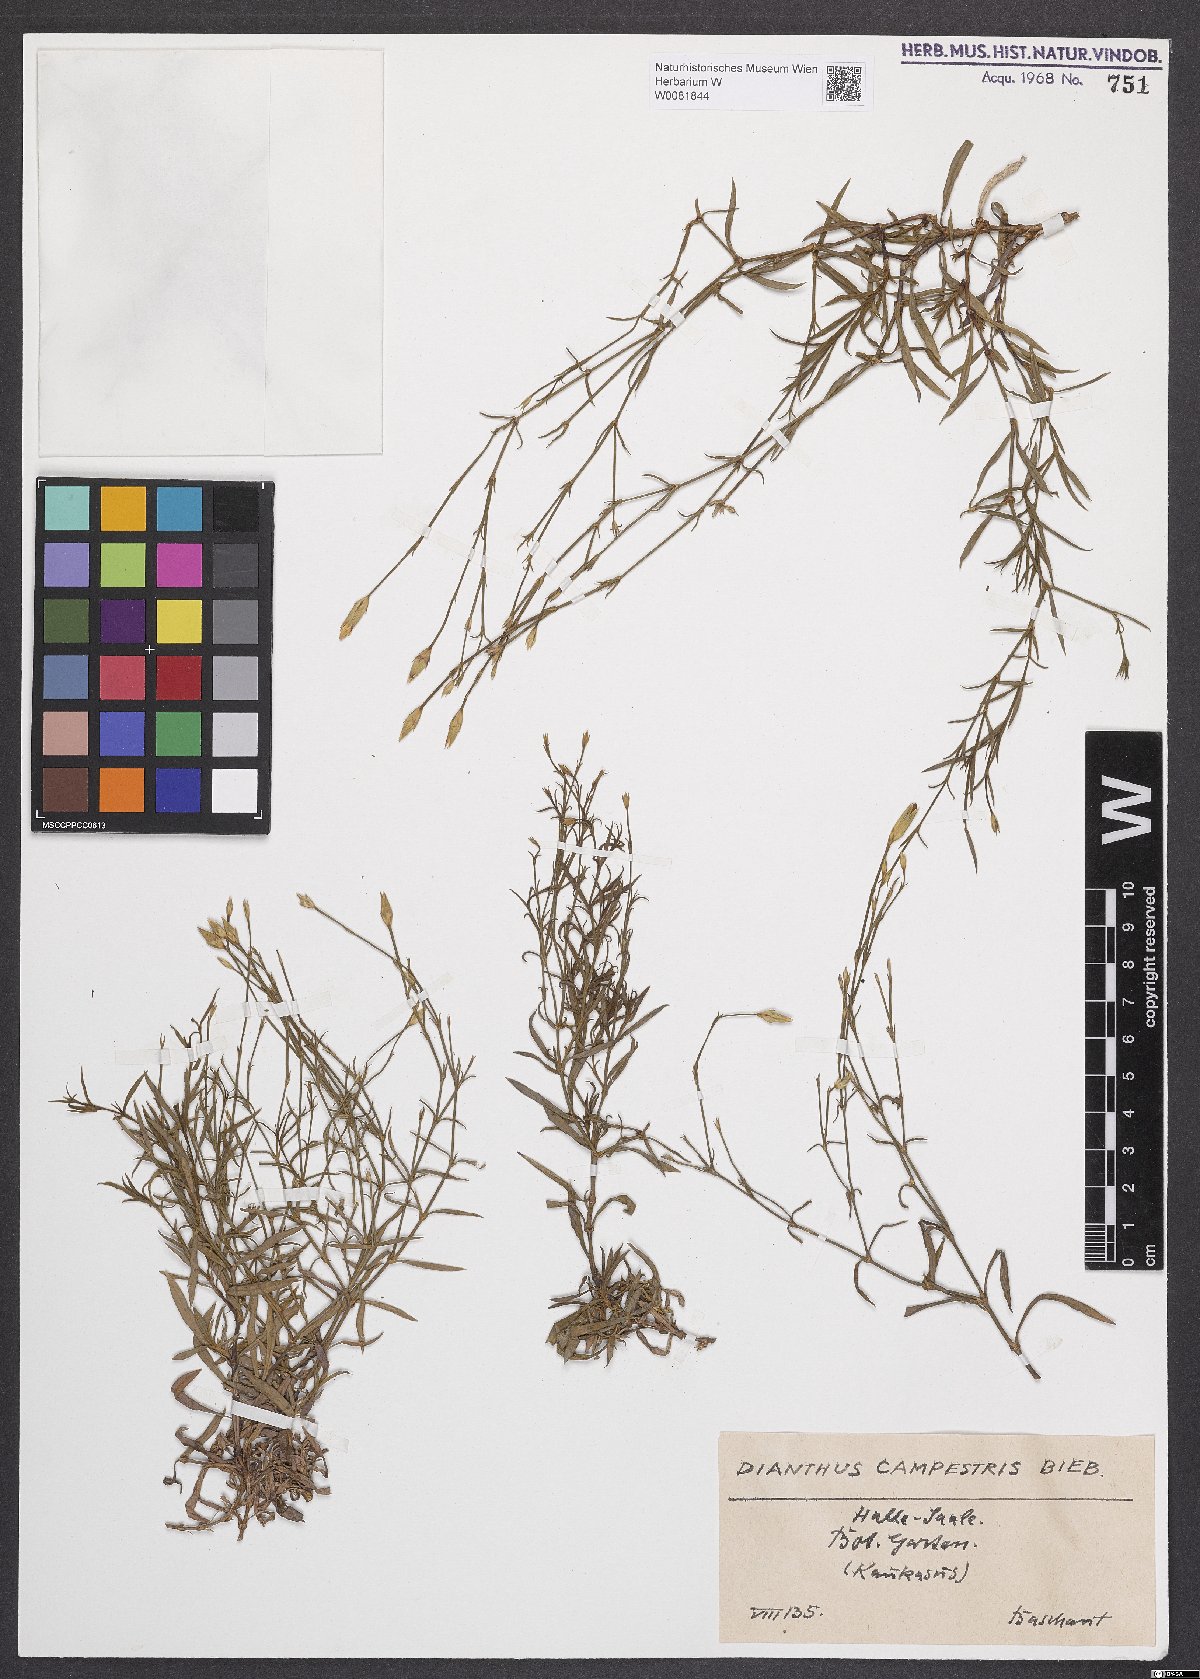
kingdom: Plantae
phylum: Tracheophyta
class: Magnoliopsida
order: Caryophyllales
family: Caryophyllaceae
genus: Dianthus
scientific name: Dianthus campestris
